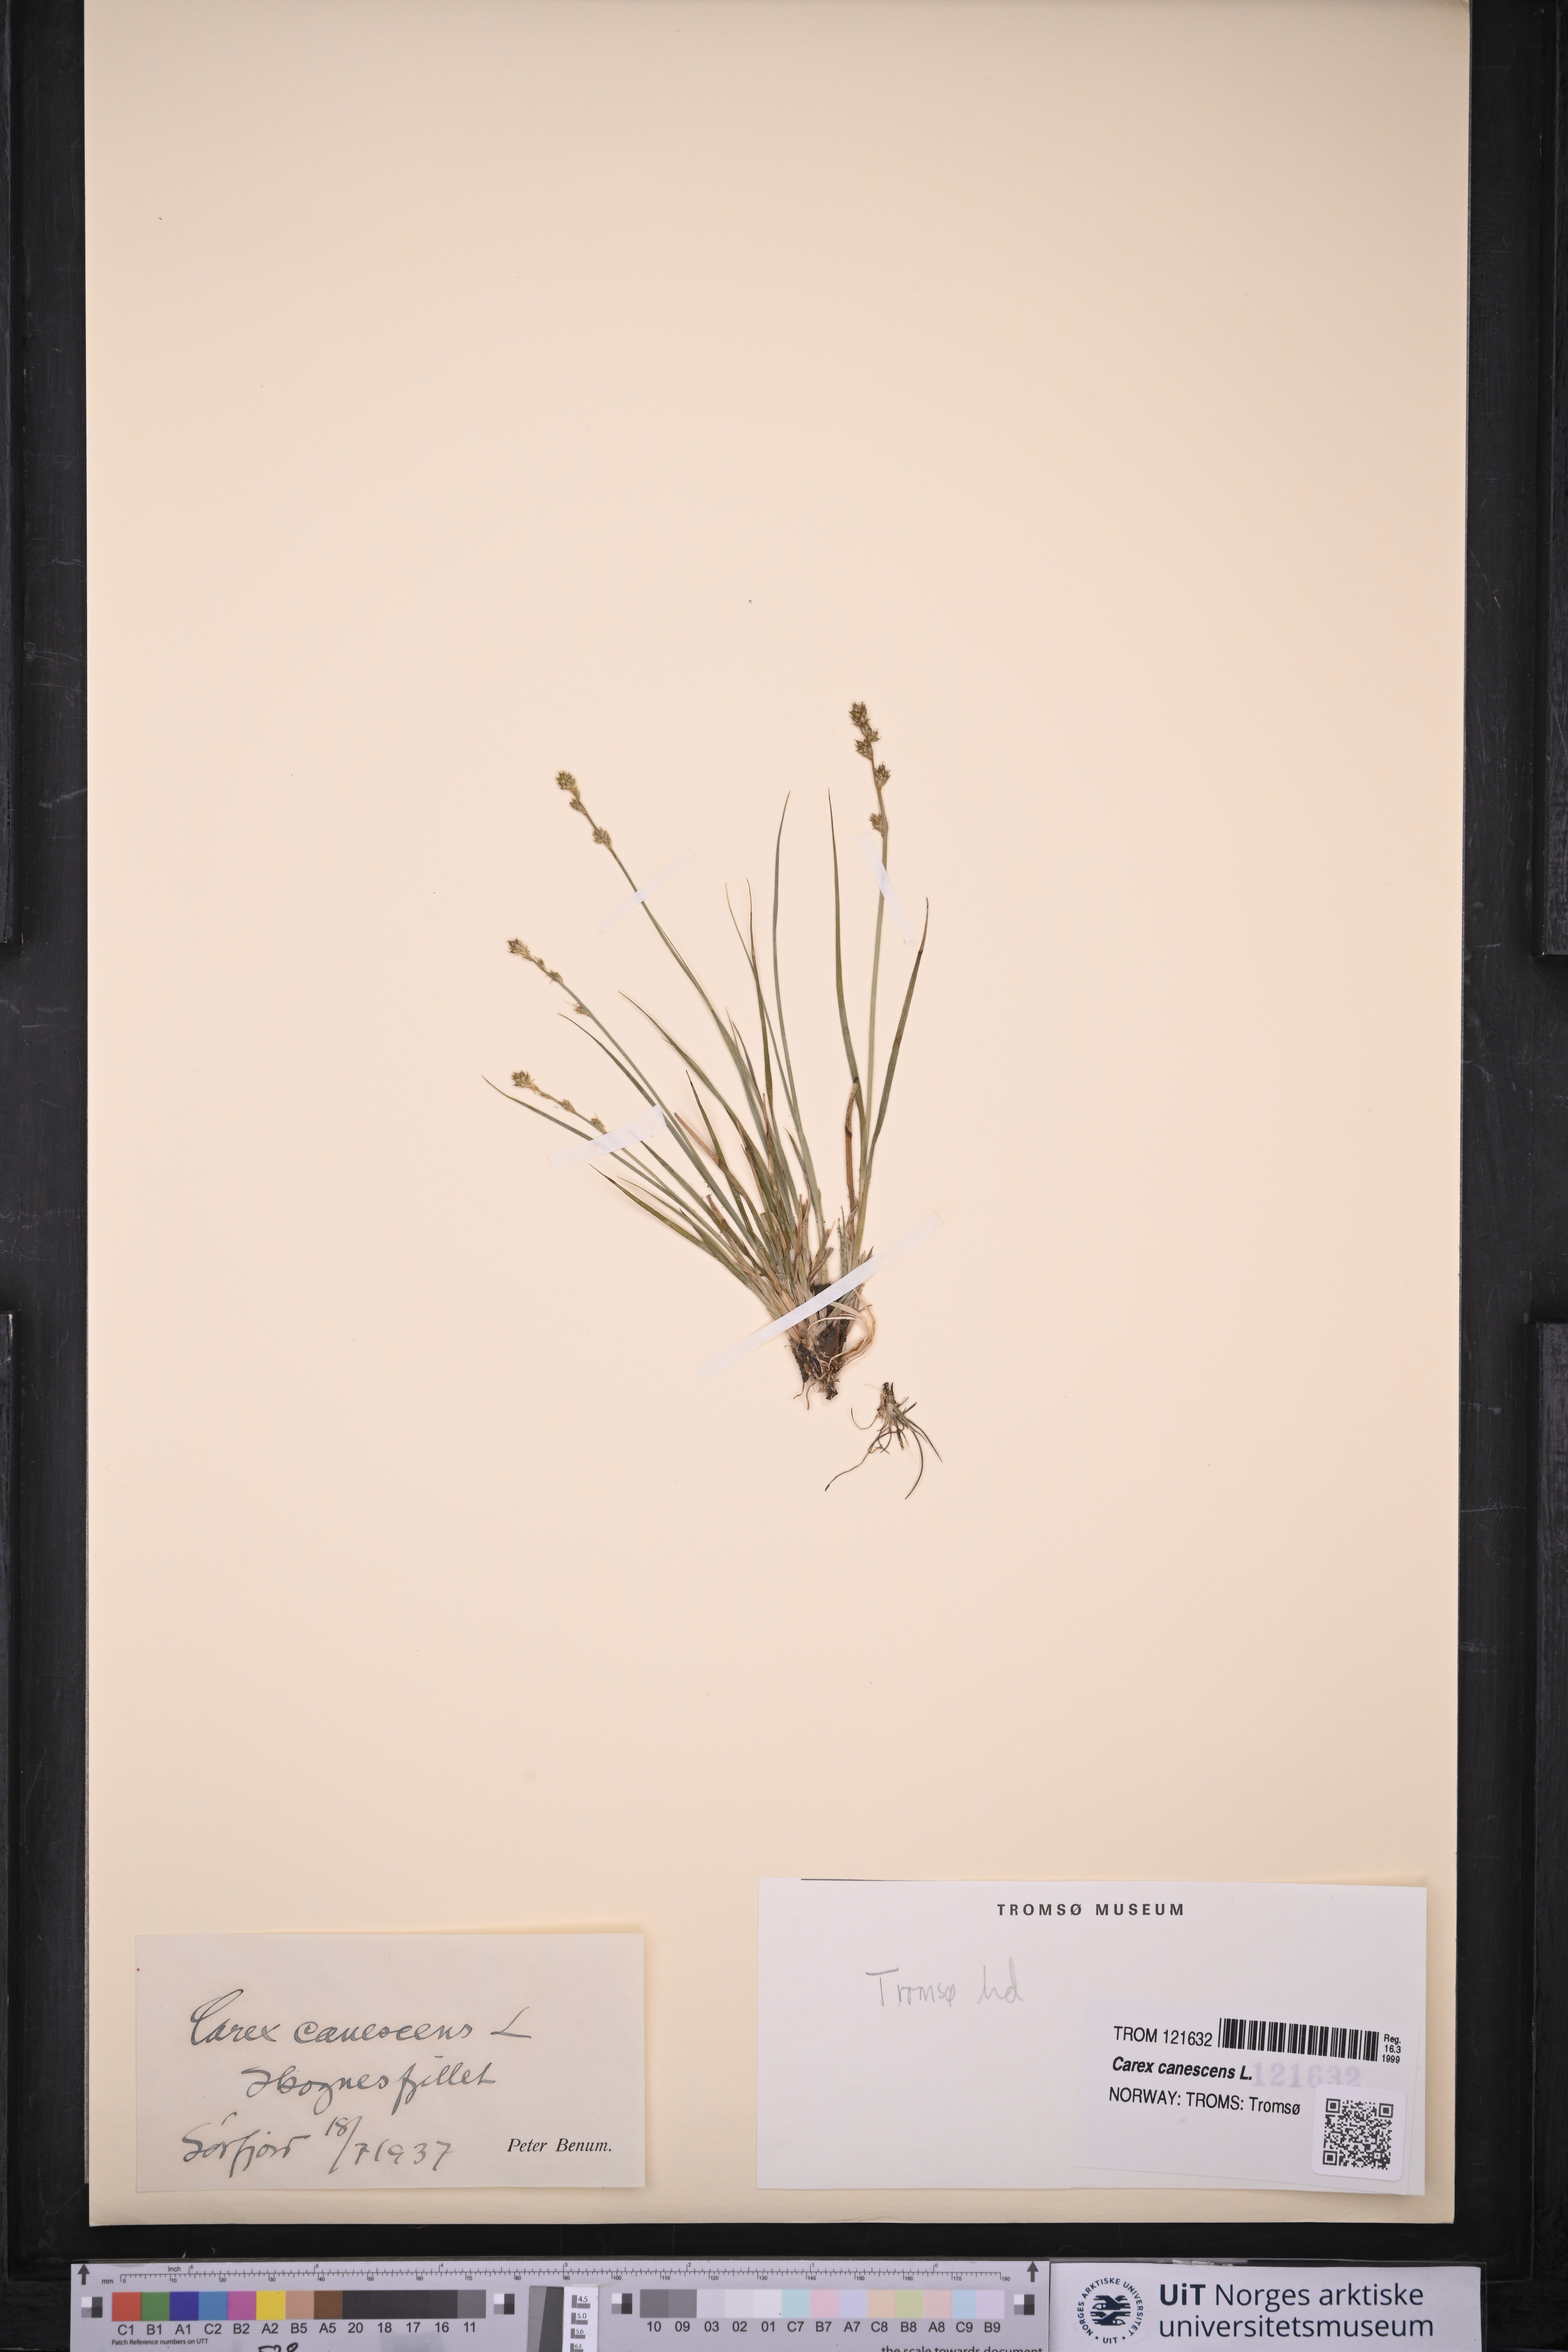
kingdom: Plantae
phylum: Tracheophyta
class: Liliopsida
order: Poales
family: Cyperaceae
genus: Carex
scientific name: Carex canescens
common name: White sedge
